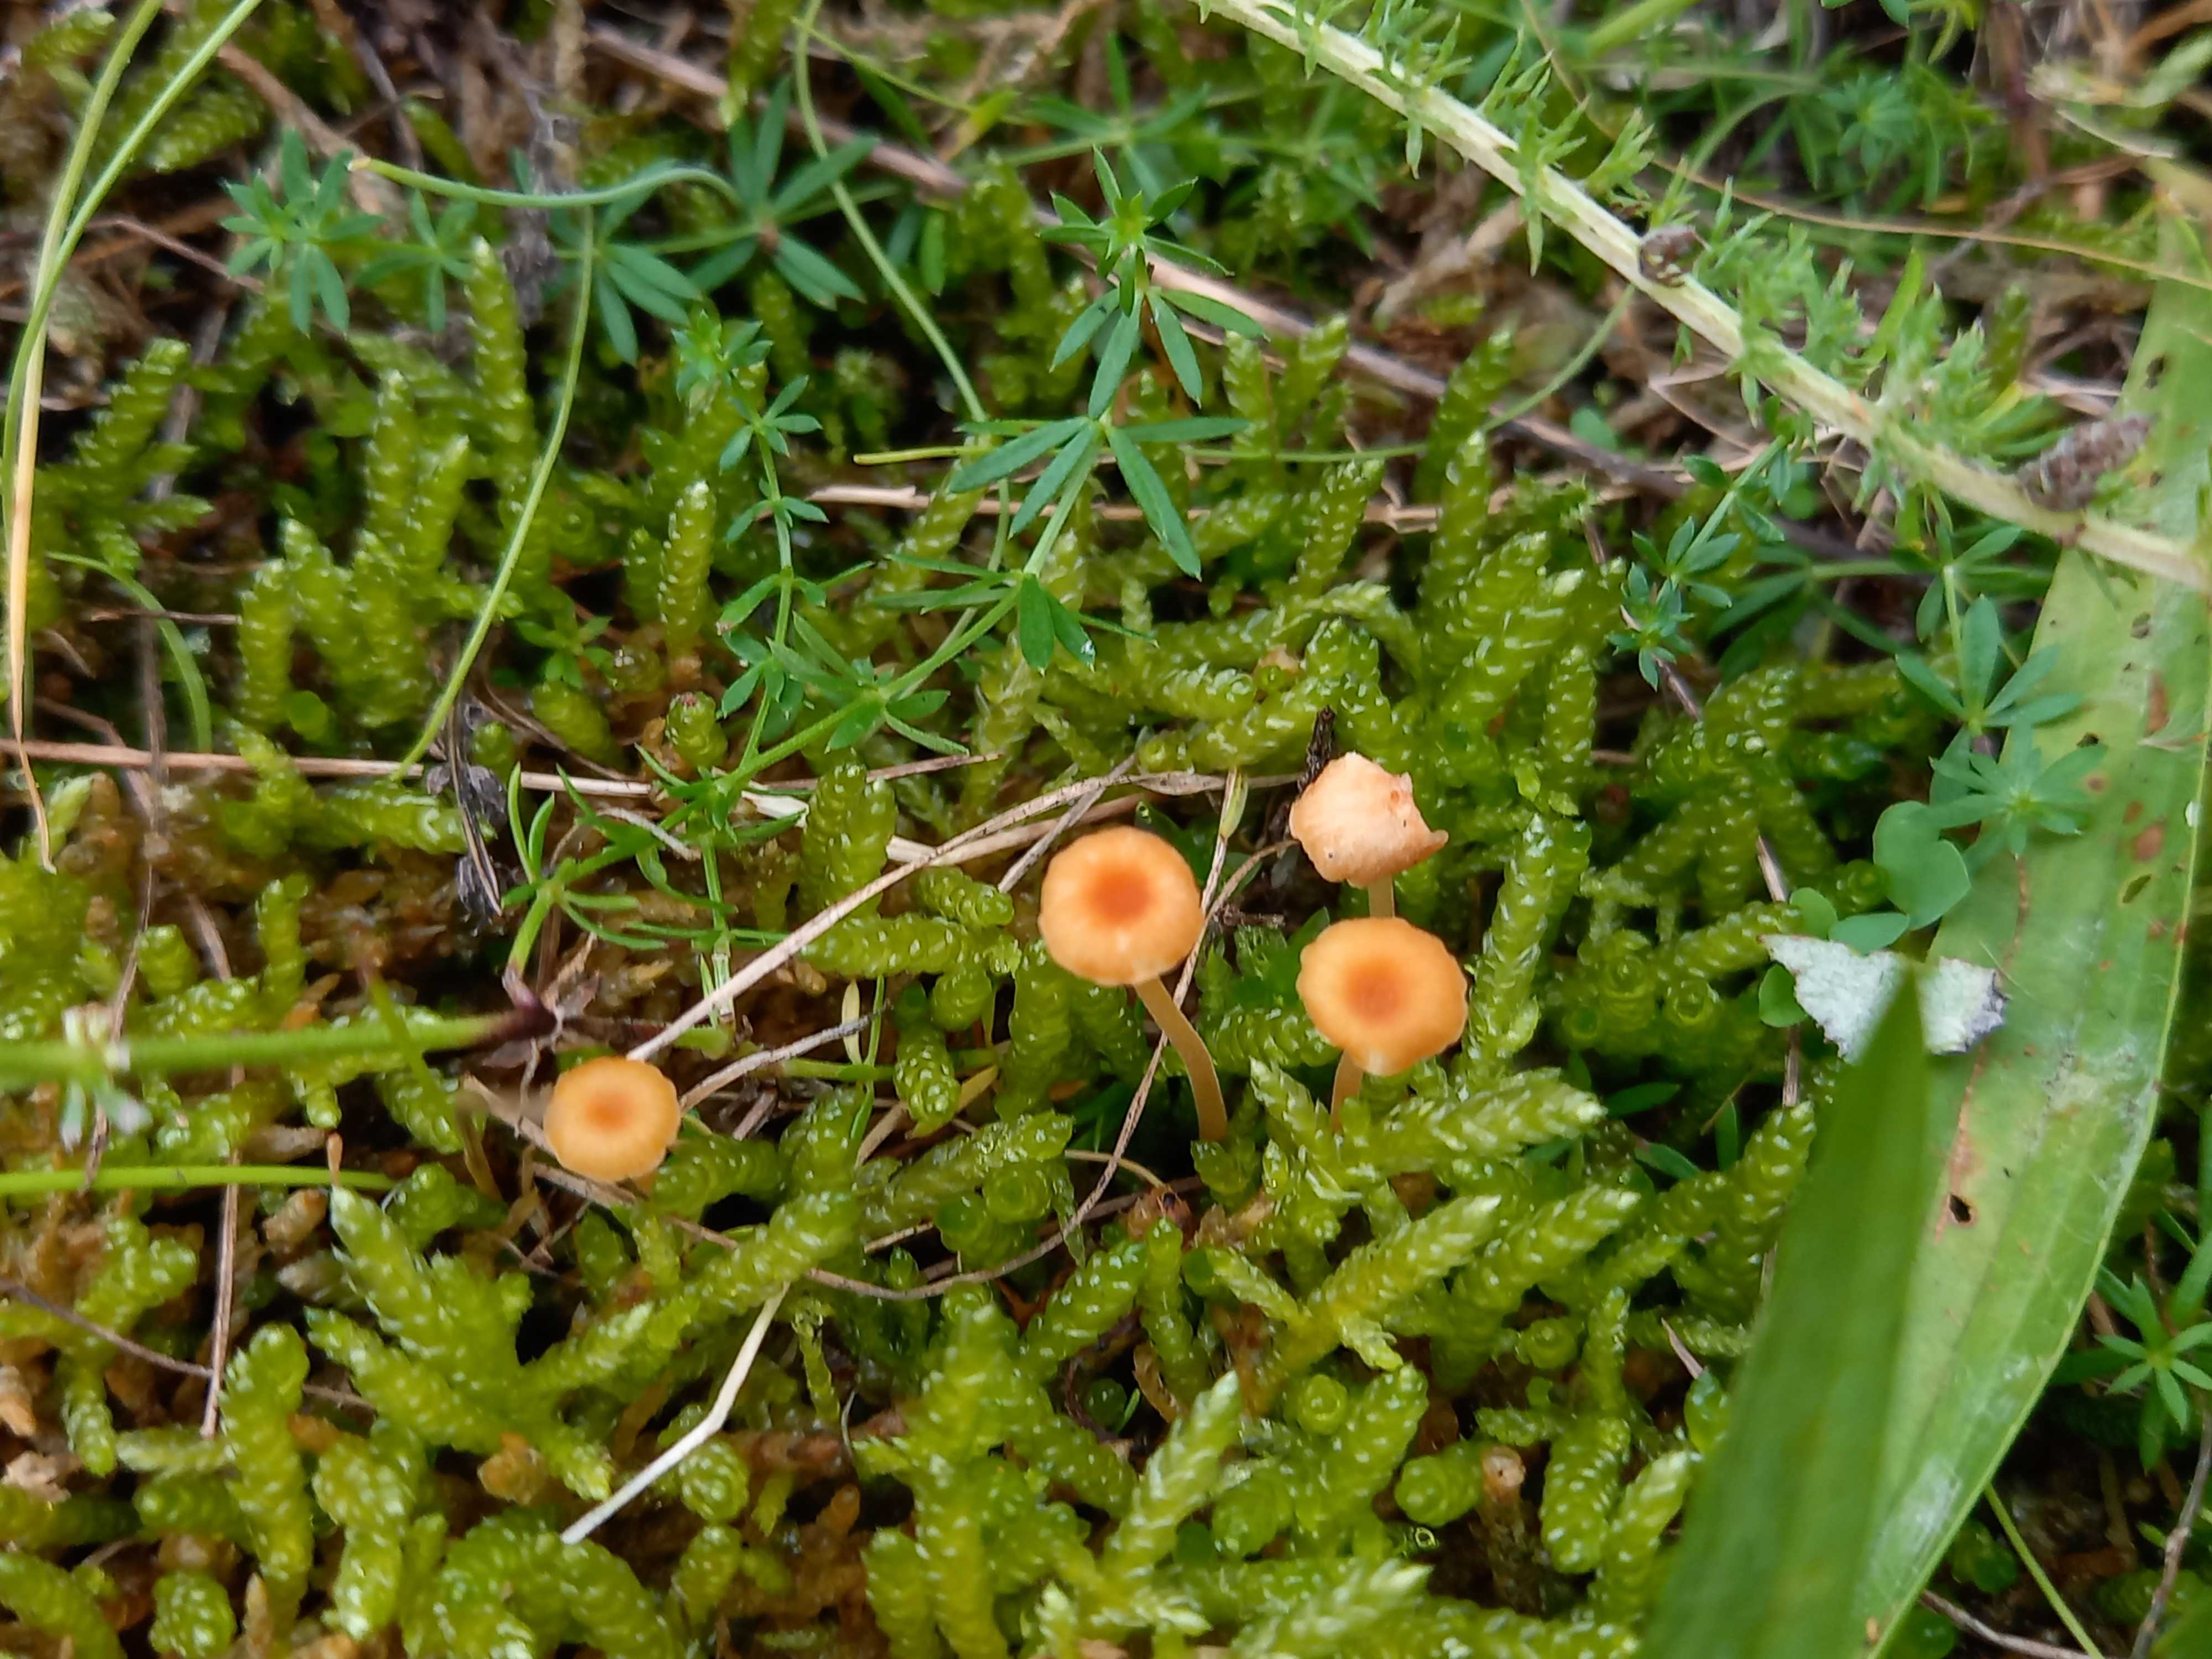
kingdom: Fungi
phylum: Basidiomycota
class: Agaricomycetes
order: Hymenochaetales
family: Rickenellaceae
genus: Rickenella
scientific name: Rickenella fibula
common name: orange mosnavlehat
